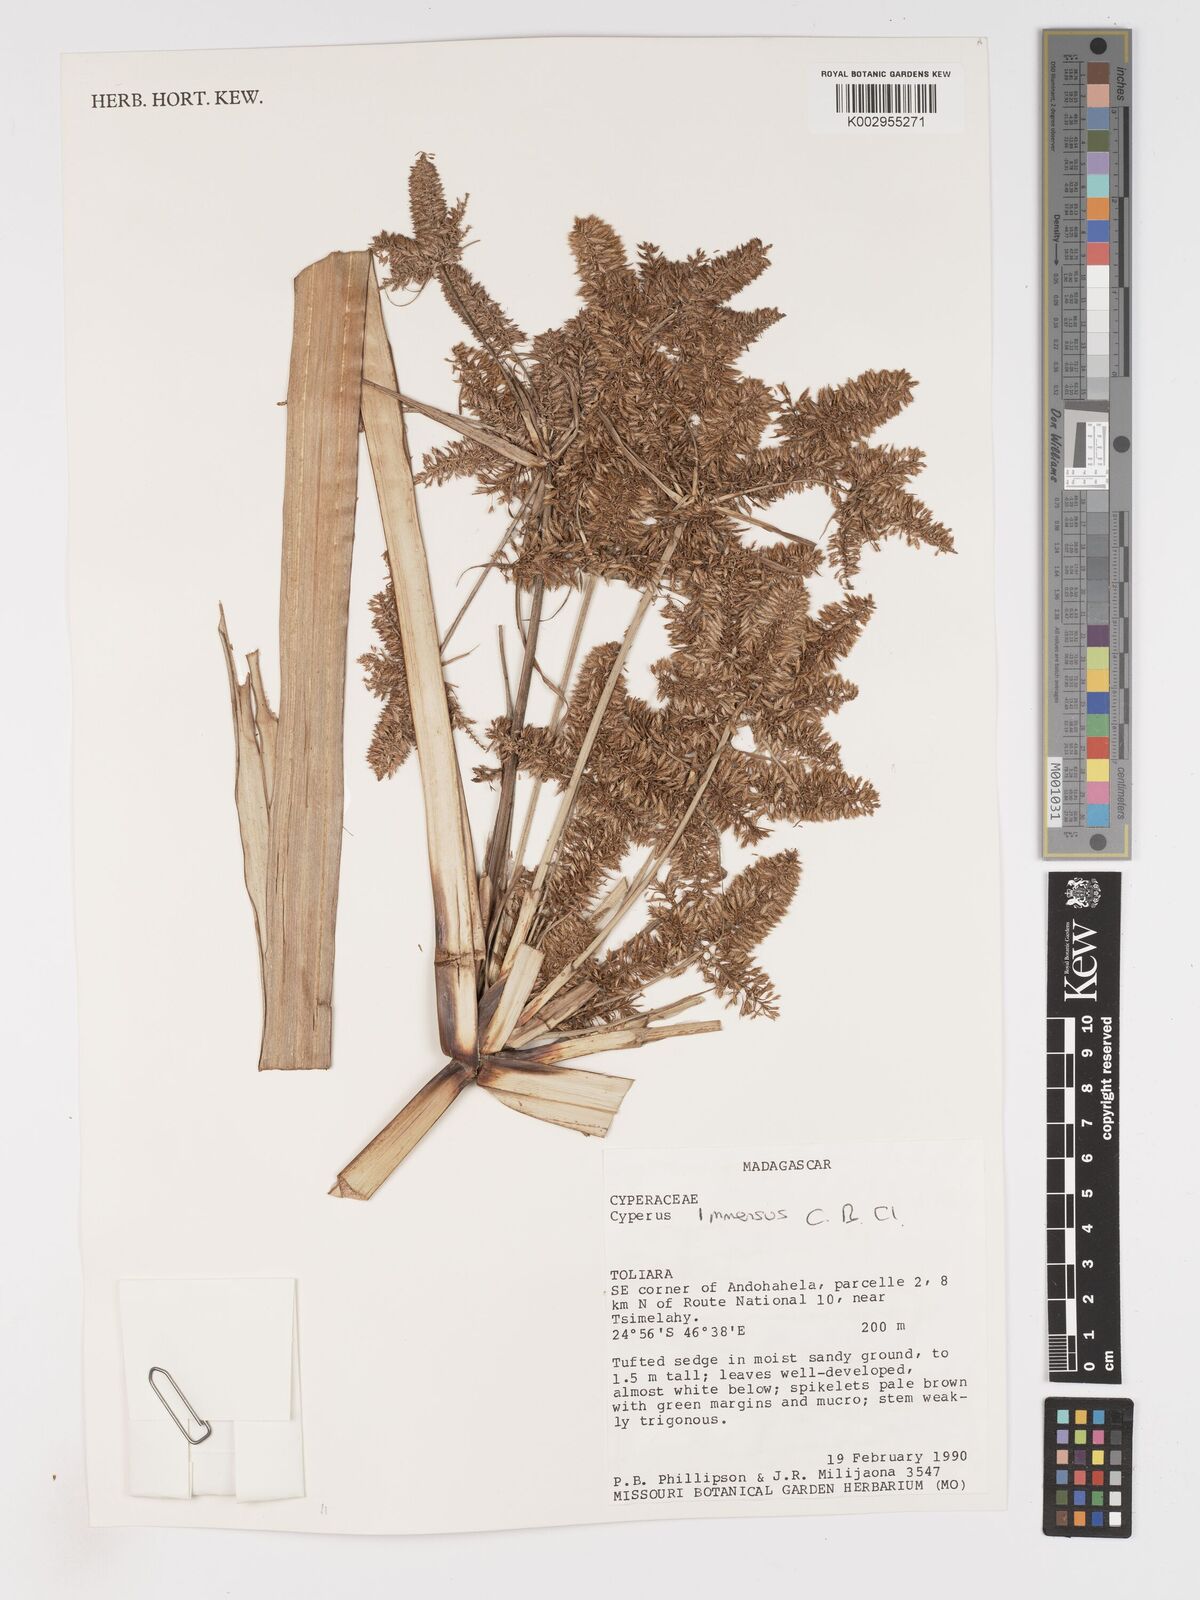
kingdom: Plantae
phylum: Tracheophyta
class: Liliopsida
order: Poales
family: Cyperaceae
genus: Cyperus
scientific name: Cyperus dives
